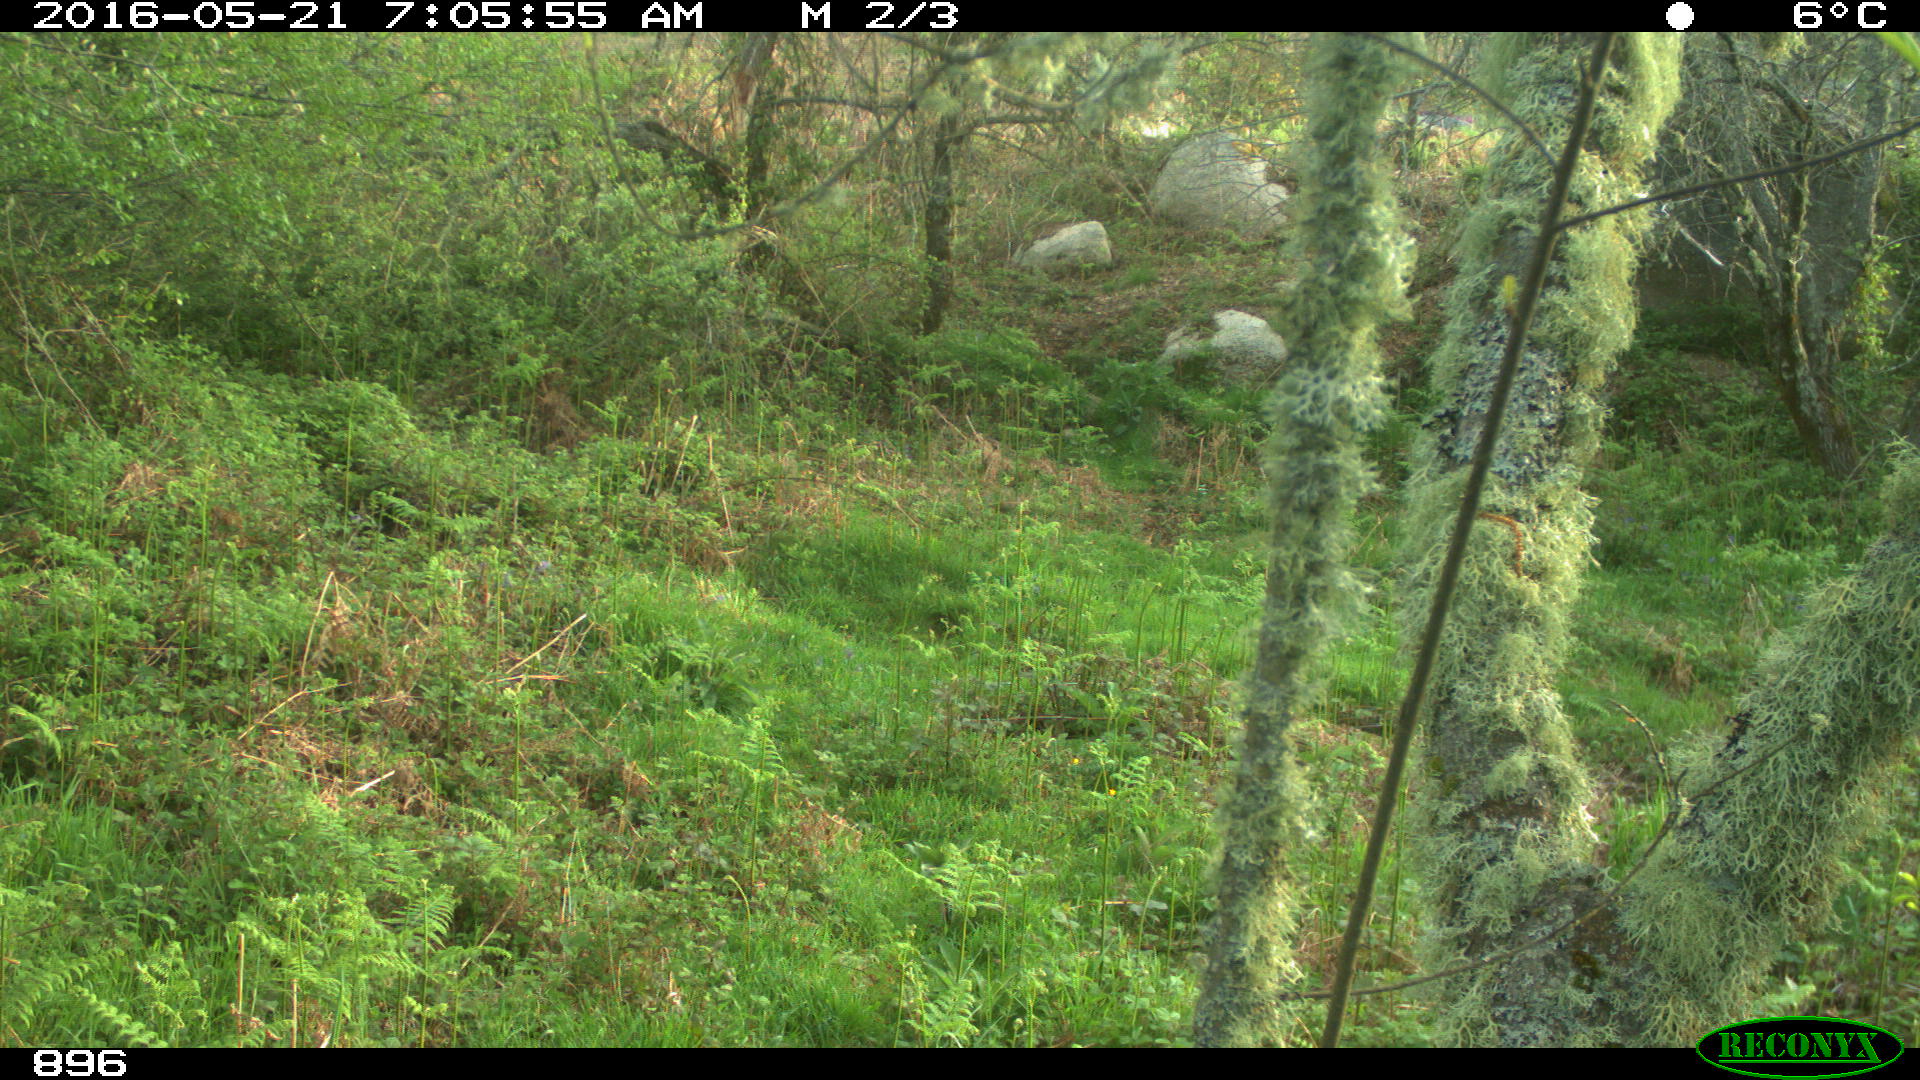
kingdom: Animalia
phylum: Chordata
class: Mammalia
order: Carnivora
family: Canidae
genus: Canis
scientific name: Canis lupus
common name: Gray wolf
